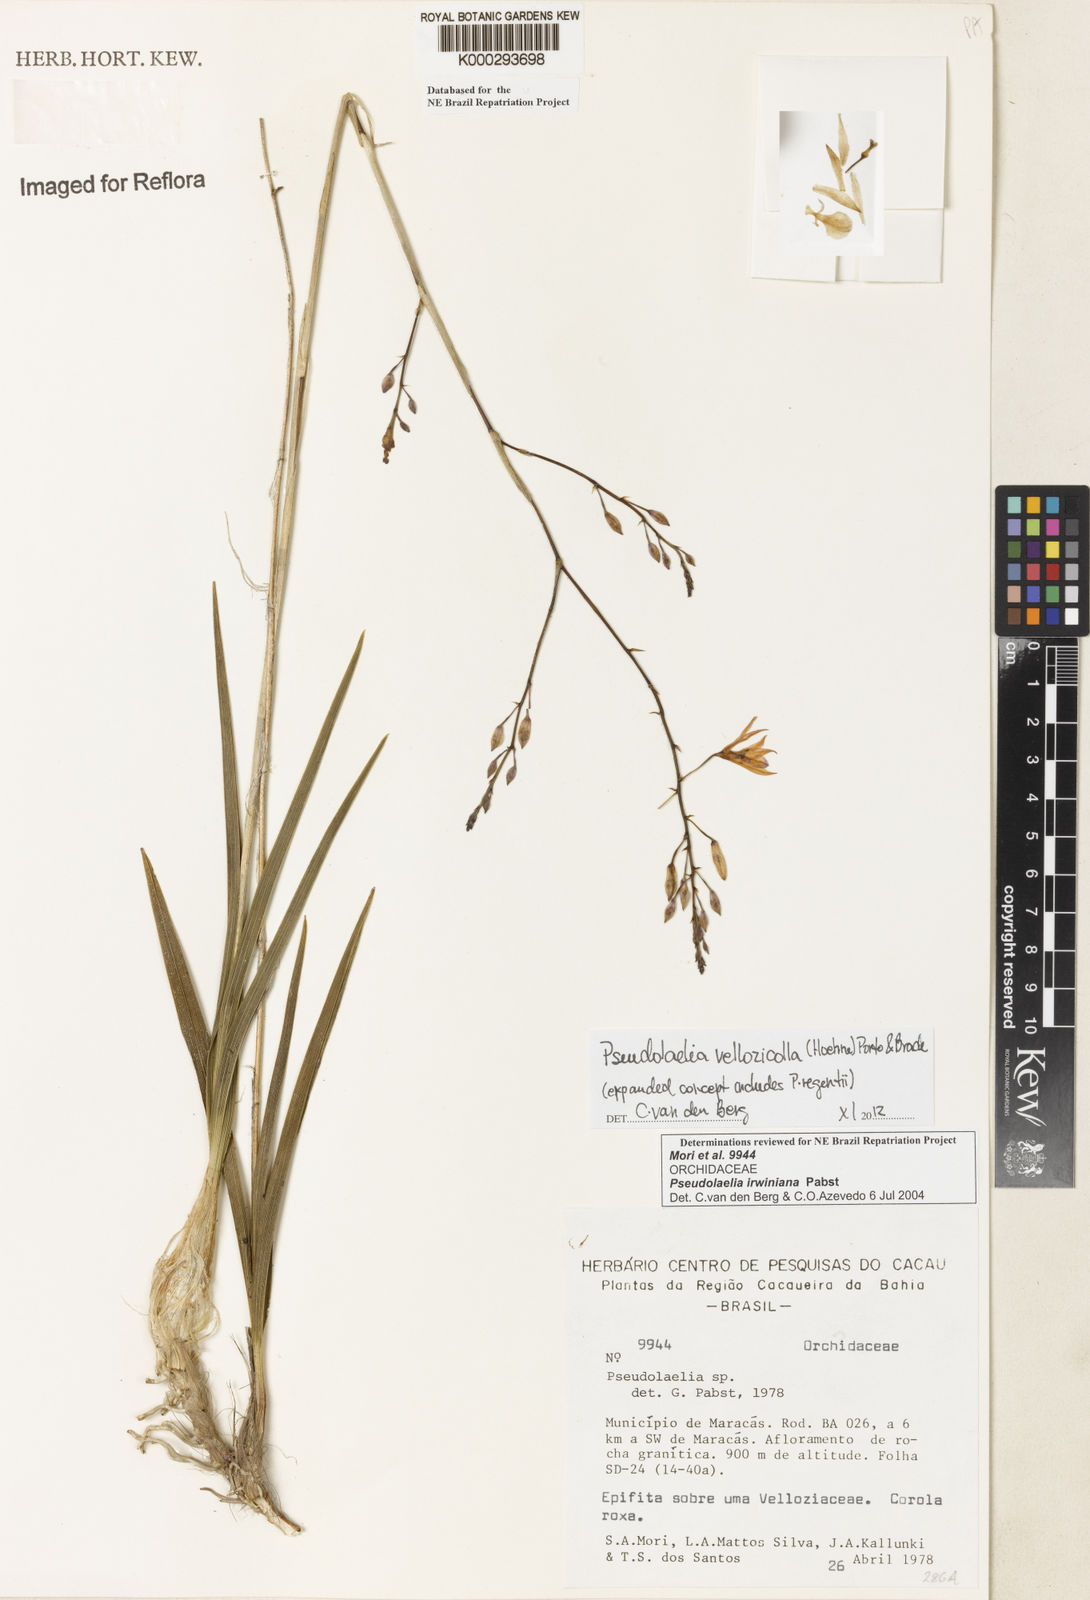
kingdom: Plantae
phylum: Tracheophyta
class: Liliopsida
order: Asparagales
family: Orchidaceae
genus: Pseudolaelia
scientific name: Pseudolaelia irwiniana
